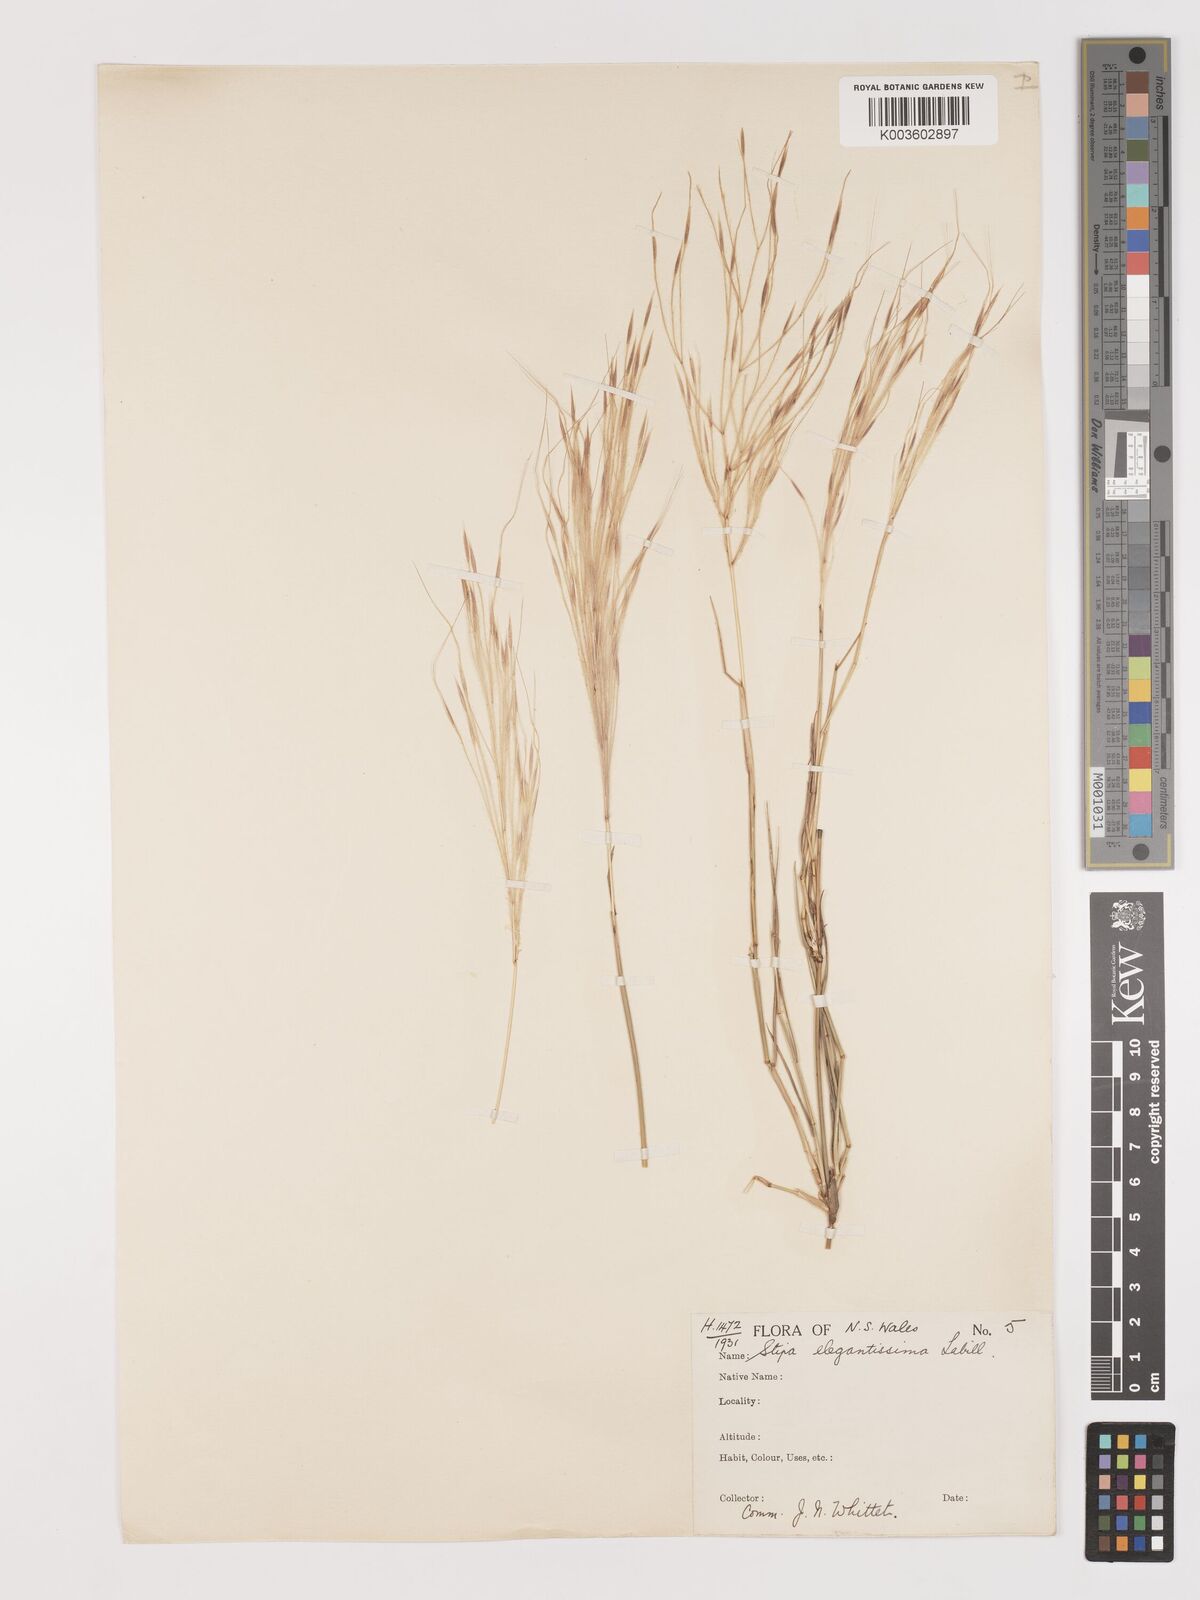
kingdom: Plantae
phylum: Tracheophyta
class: Liliopsida
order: Poales
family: Poaceae
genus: Austrostipa
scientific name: Austrostipa elegantissima
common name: Feather spear grass
